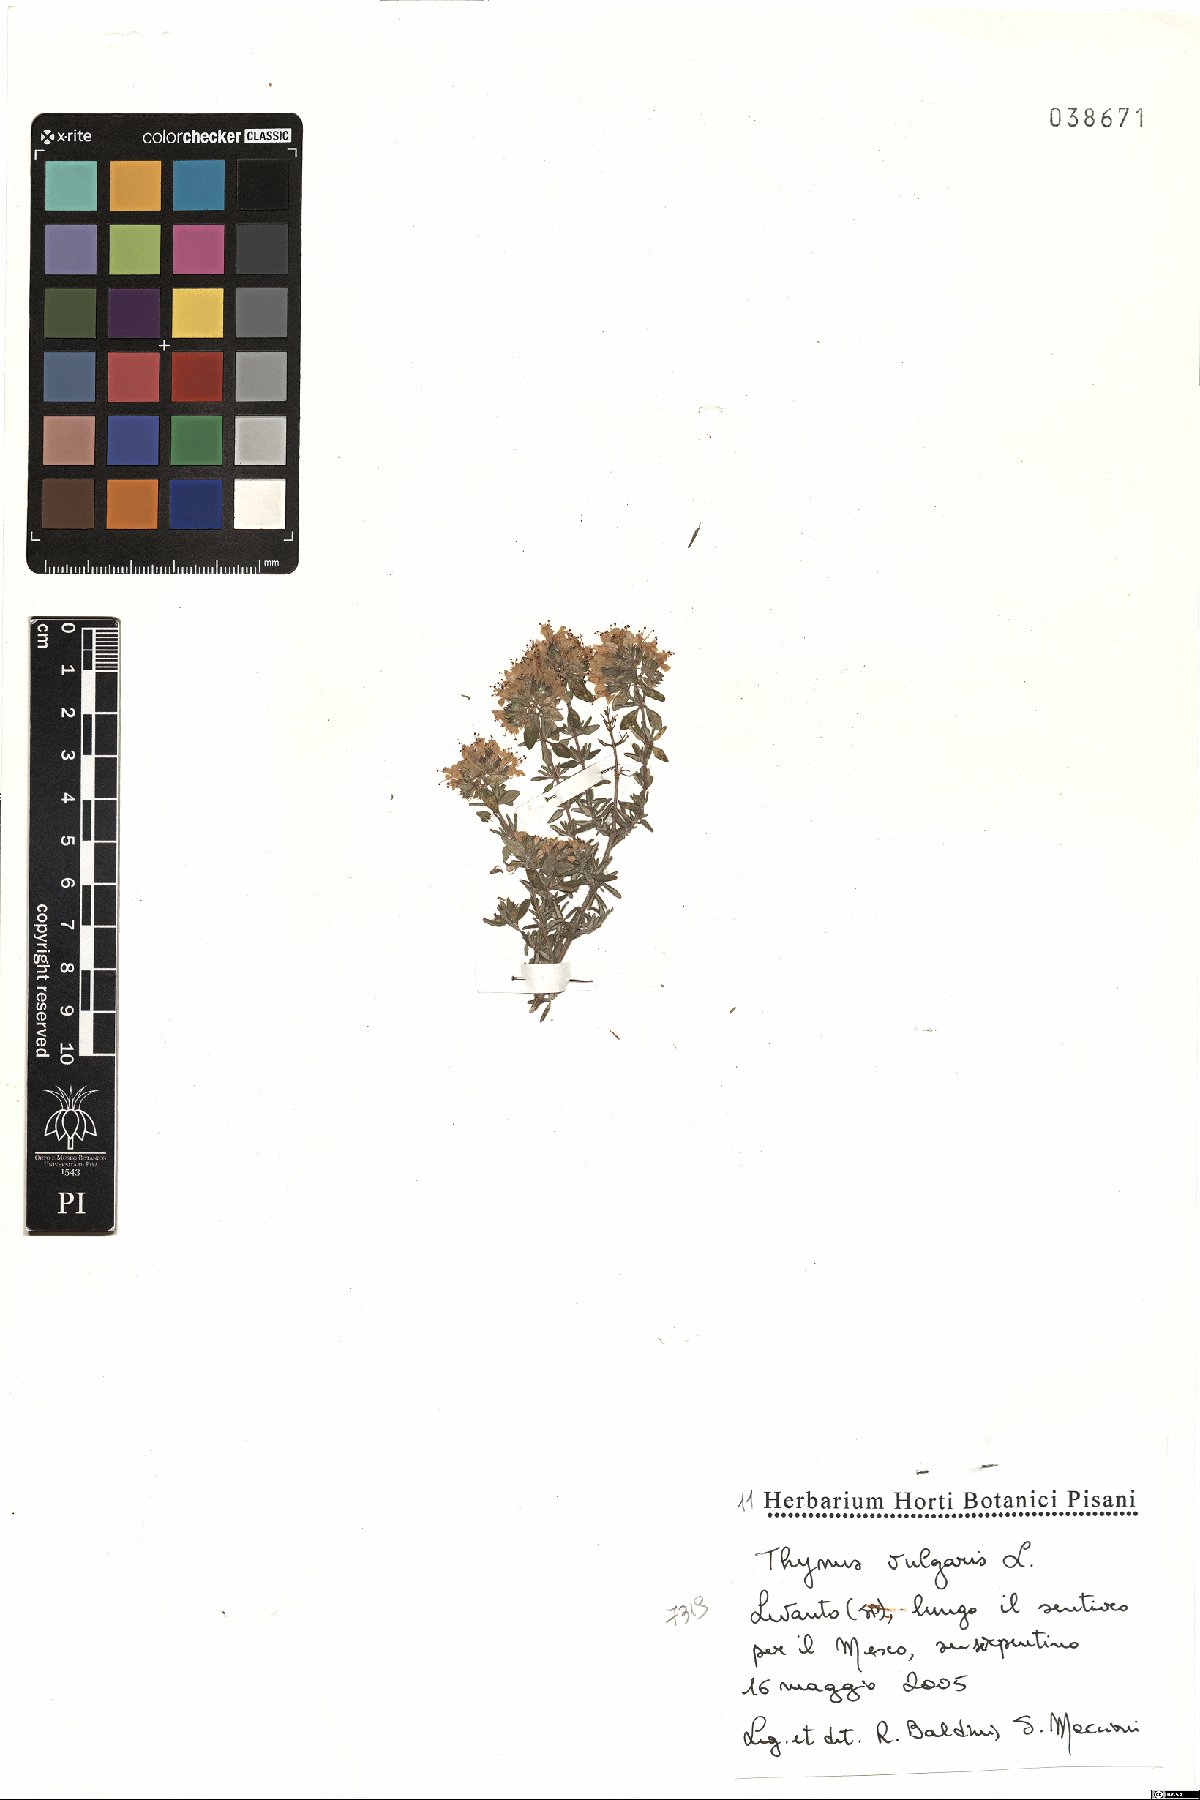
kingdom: Plantae
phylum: Tracheophyta
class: Magnoliopsida
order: Lamiales
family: Lamiaceae
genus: Thymus
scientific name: Thymus vulgaris
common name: Garden thyme
